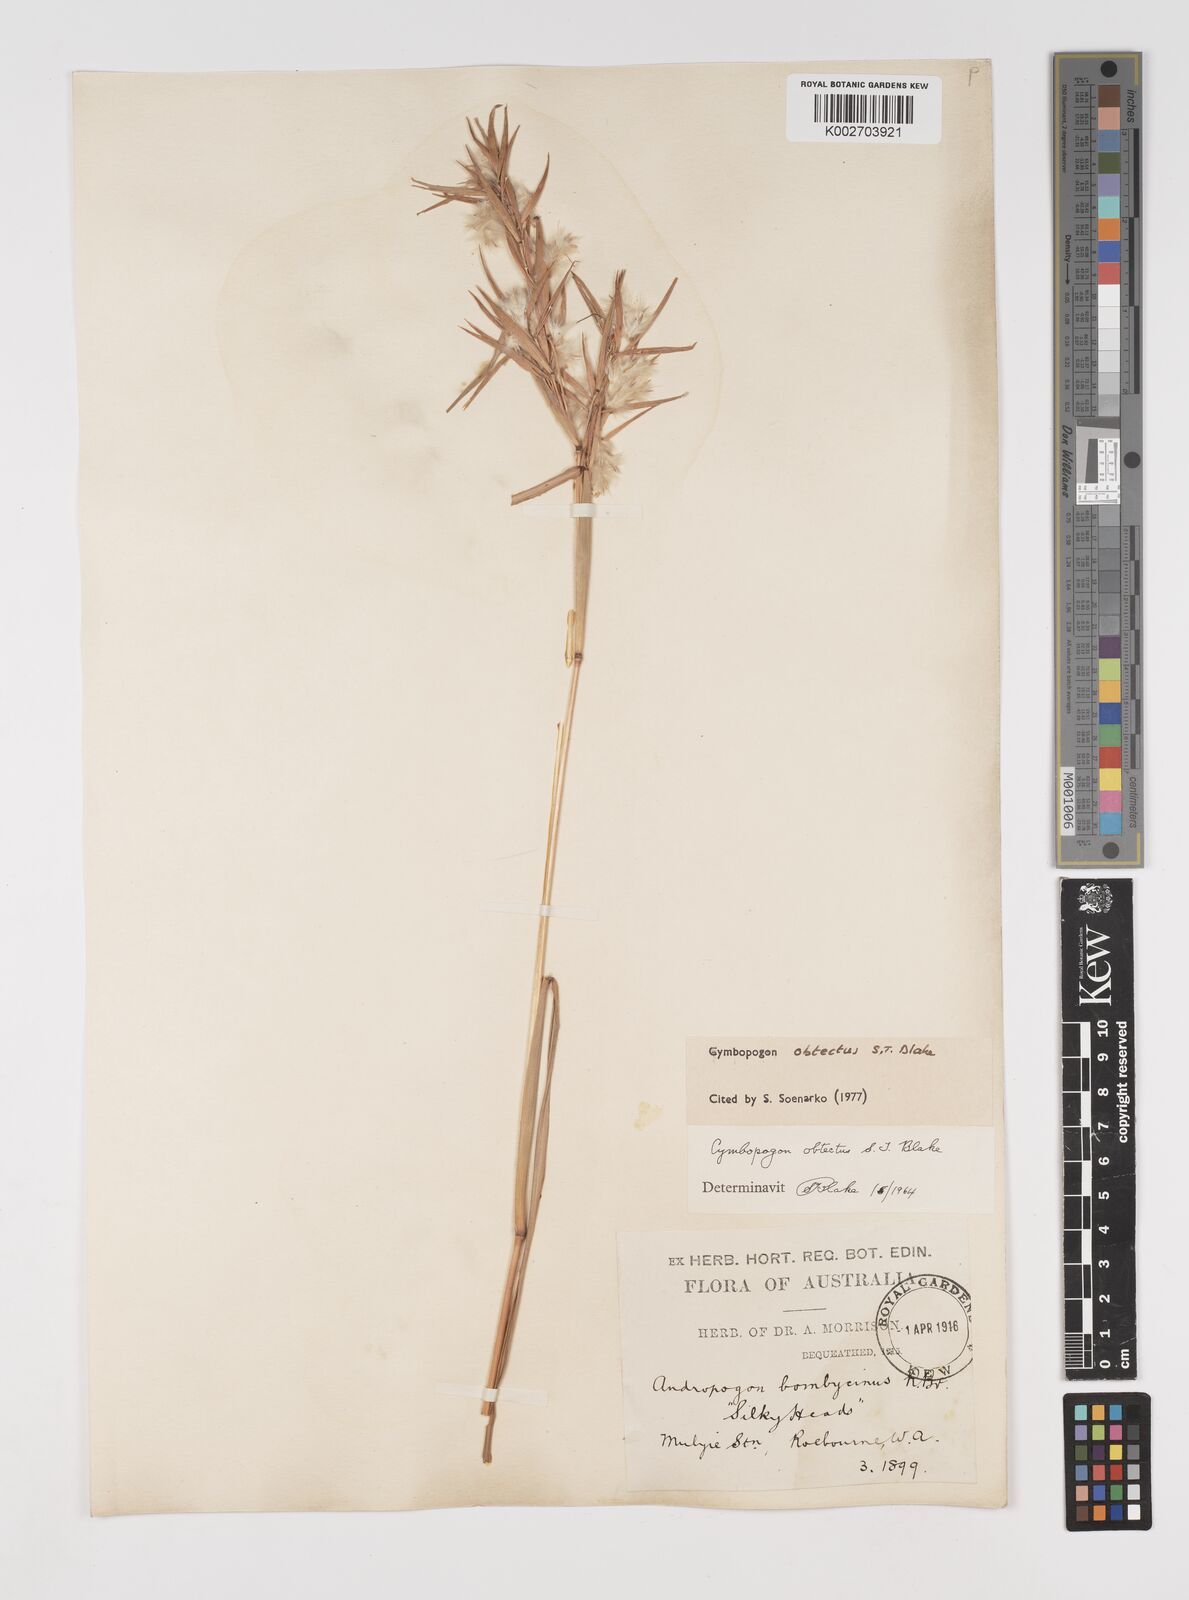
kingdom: Plantae
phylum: Tracheophyta
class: Liliopsida
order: Poales
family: Poaceae
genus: Cymbopogon
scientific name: Cymbopogon obtectus
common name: Silky heads
